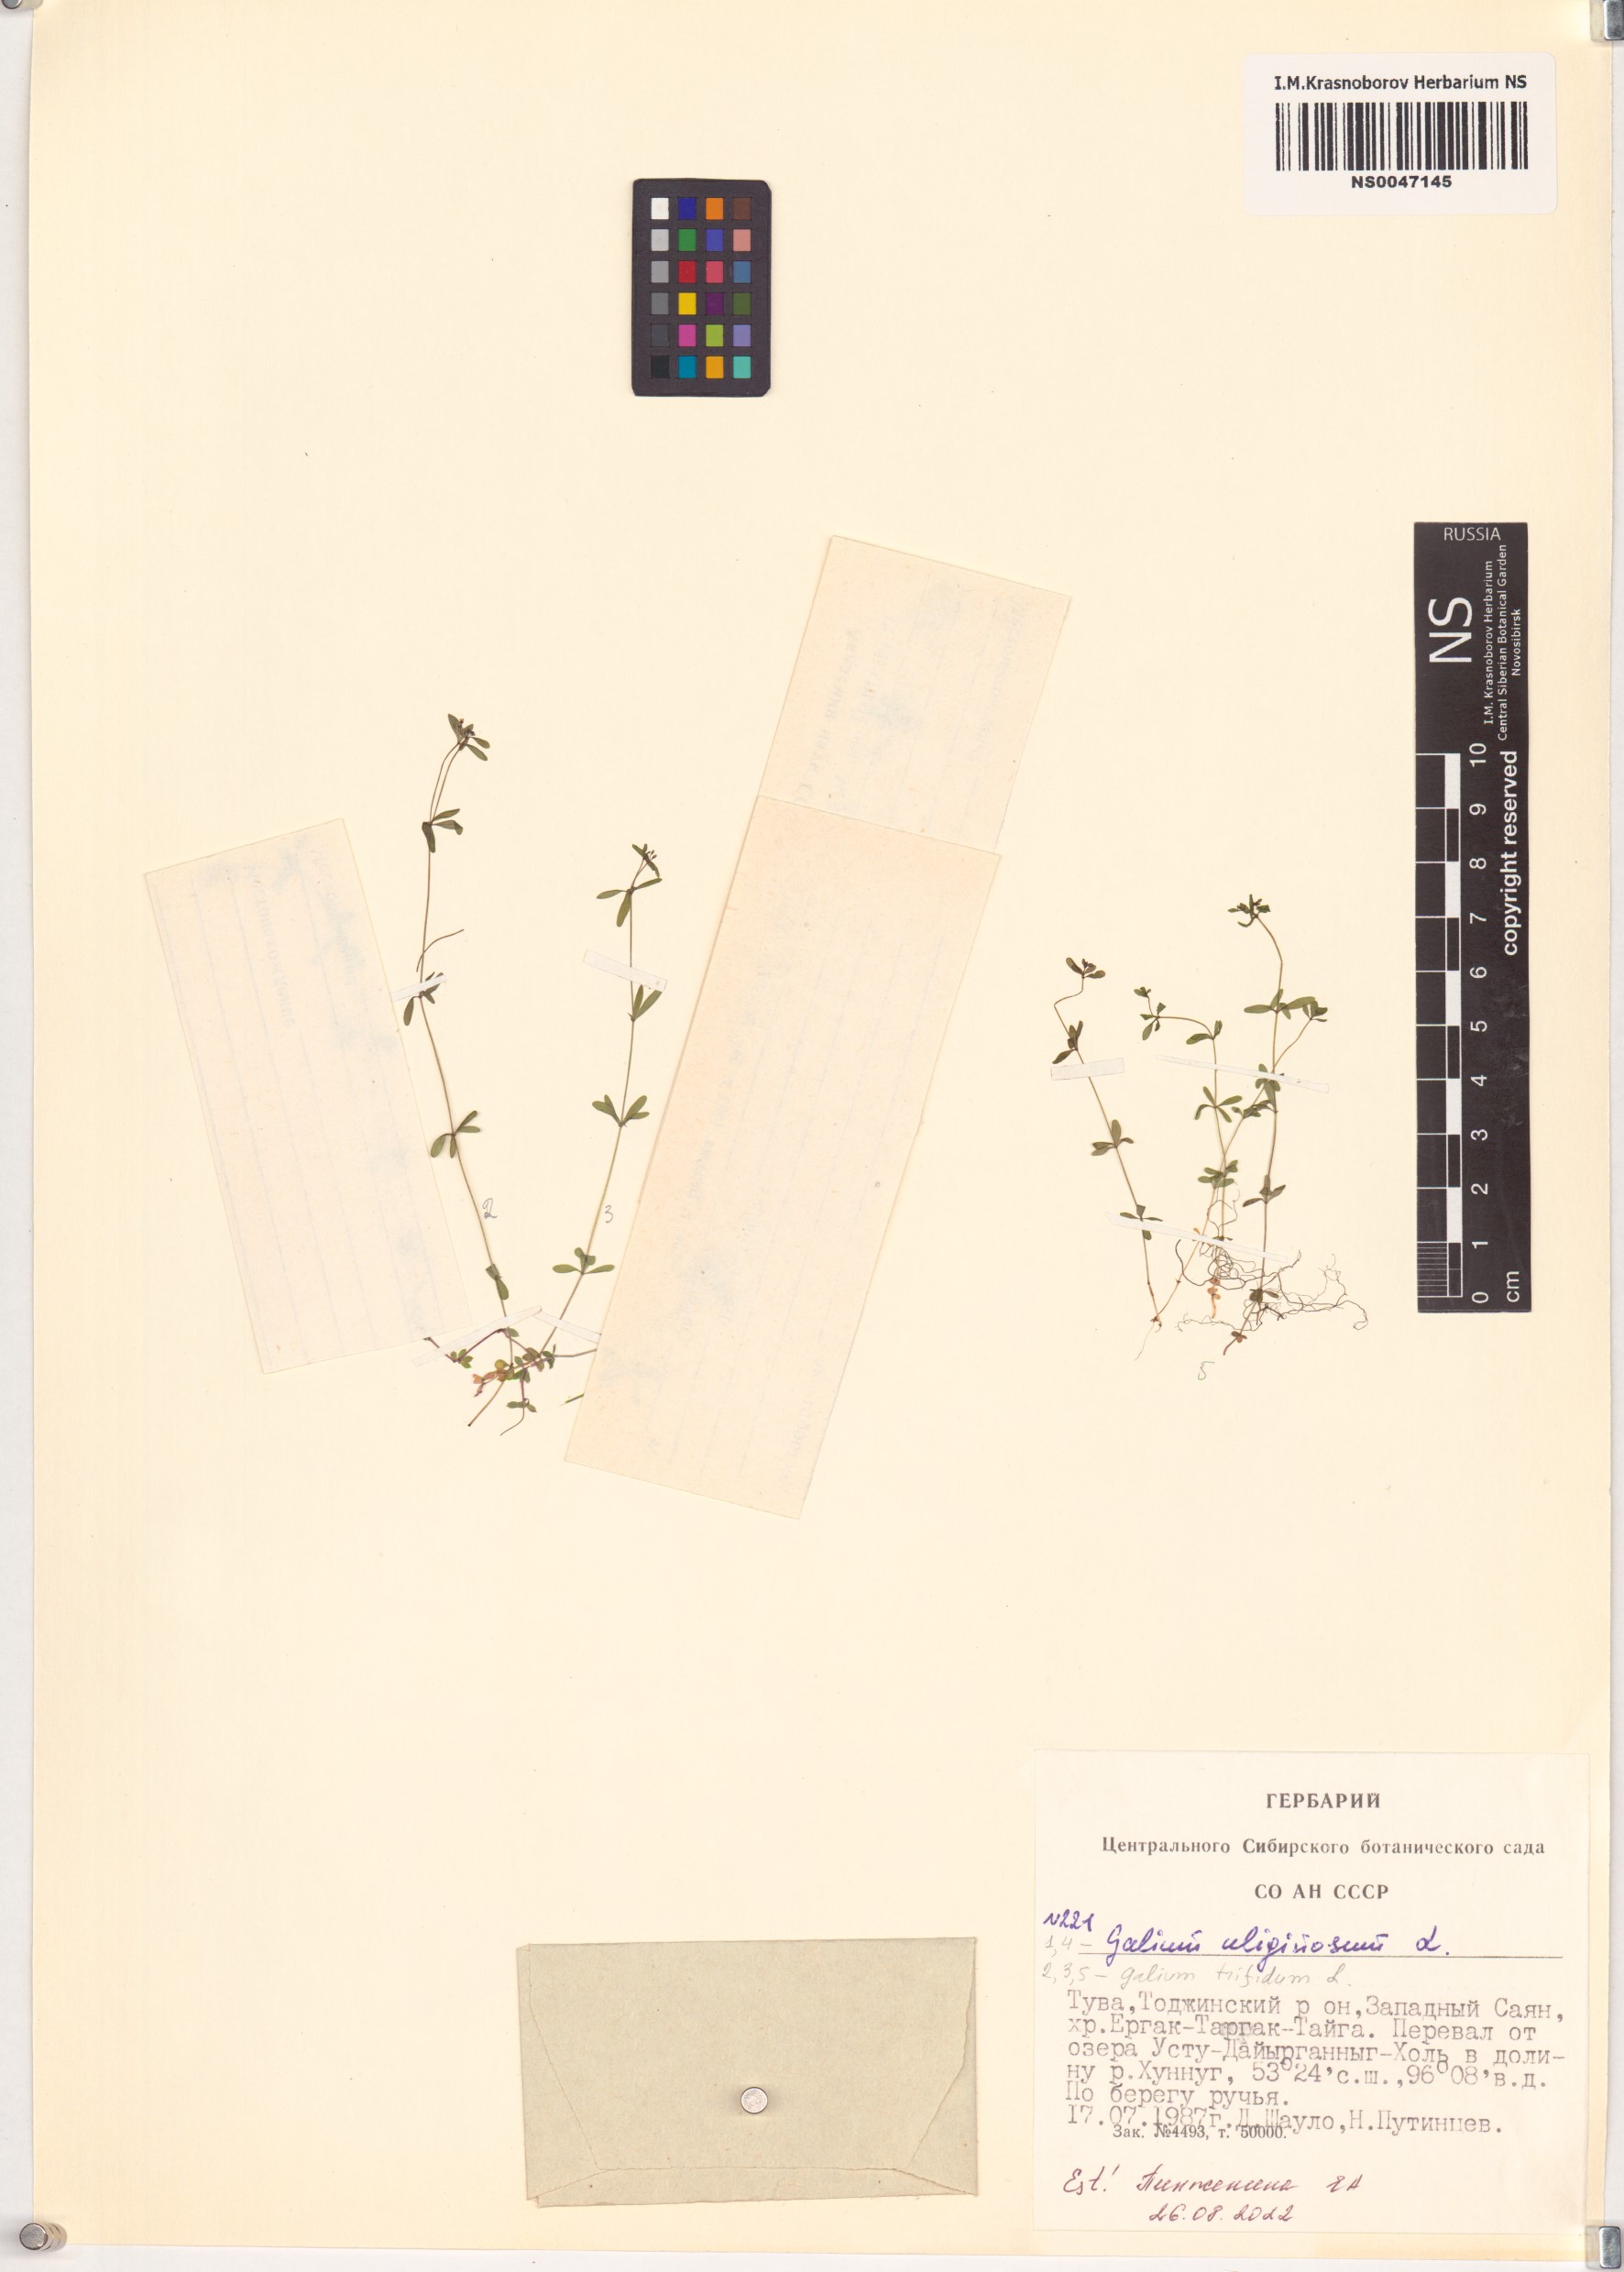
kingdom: Plantae
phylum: Tracheophyta
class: Magnoliopsida
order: Gentianales
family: Rubiaceae
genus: Galium
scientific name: Galium trifidum
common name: Small bedstraw
